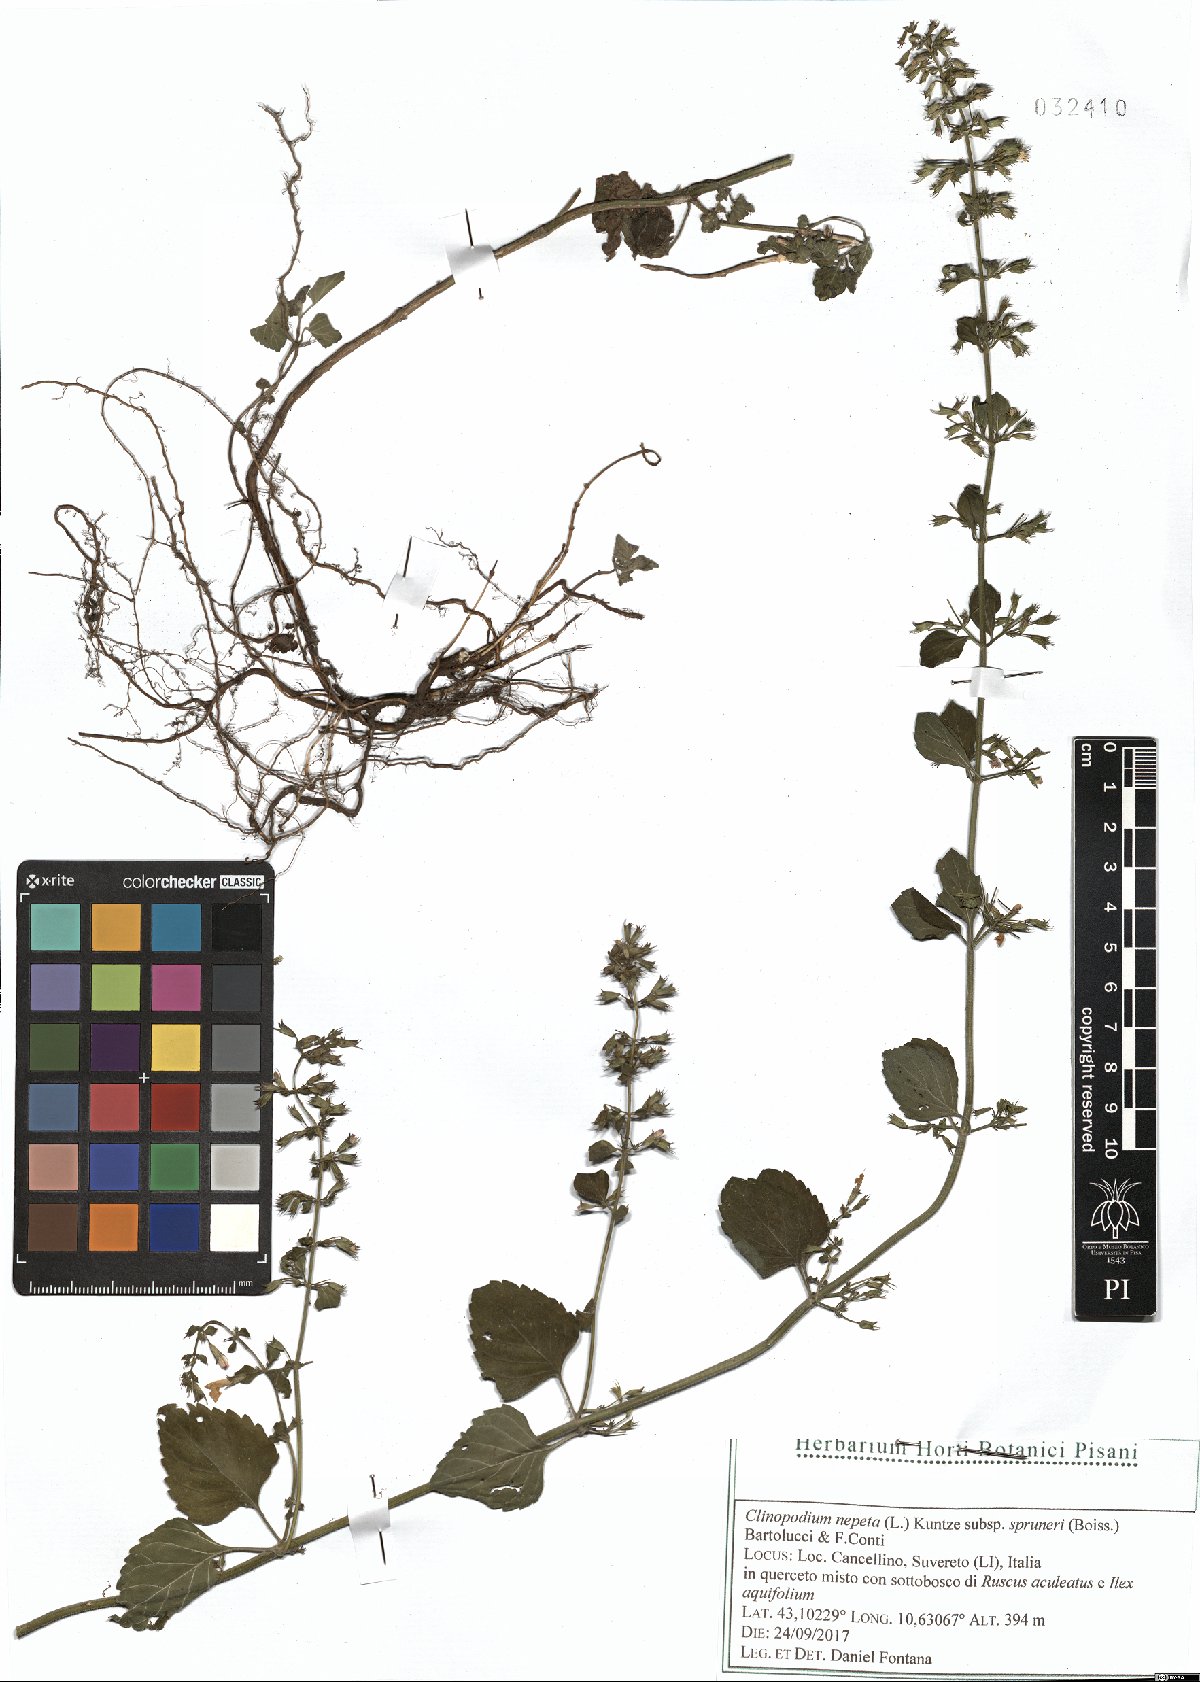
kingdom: Plantae
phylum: Tracheophyta
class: Magnoliopsida
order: Lamiales
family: Lamiaceae
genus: Clinopodium
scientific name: Clinopodium nepeta
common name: Lesser calamint
